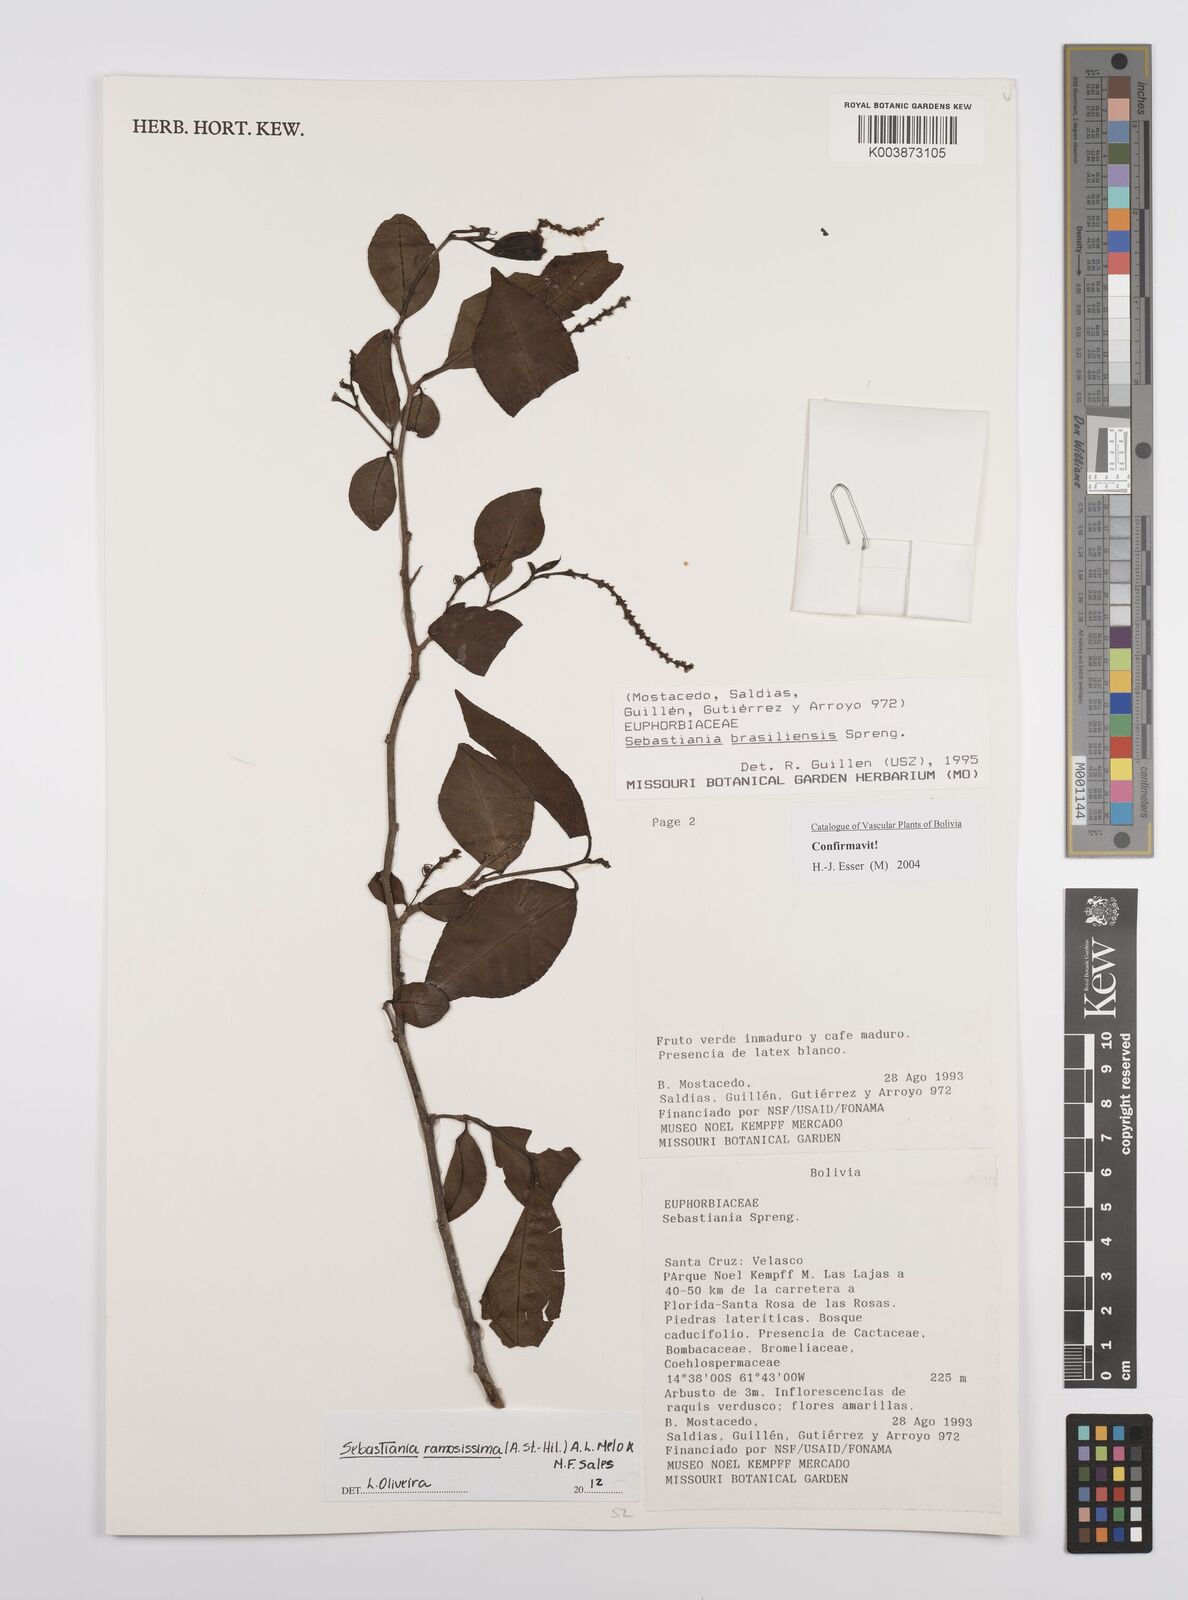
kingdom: Plantae
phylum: Tracheophyta
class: Magnoliopsida
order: Malpighiales
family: Euphorbiaceae
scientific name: Euphorbiaceae
